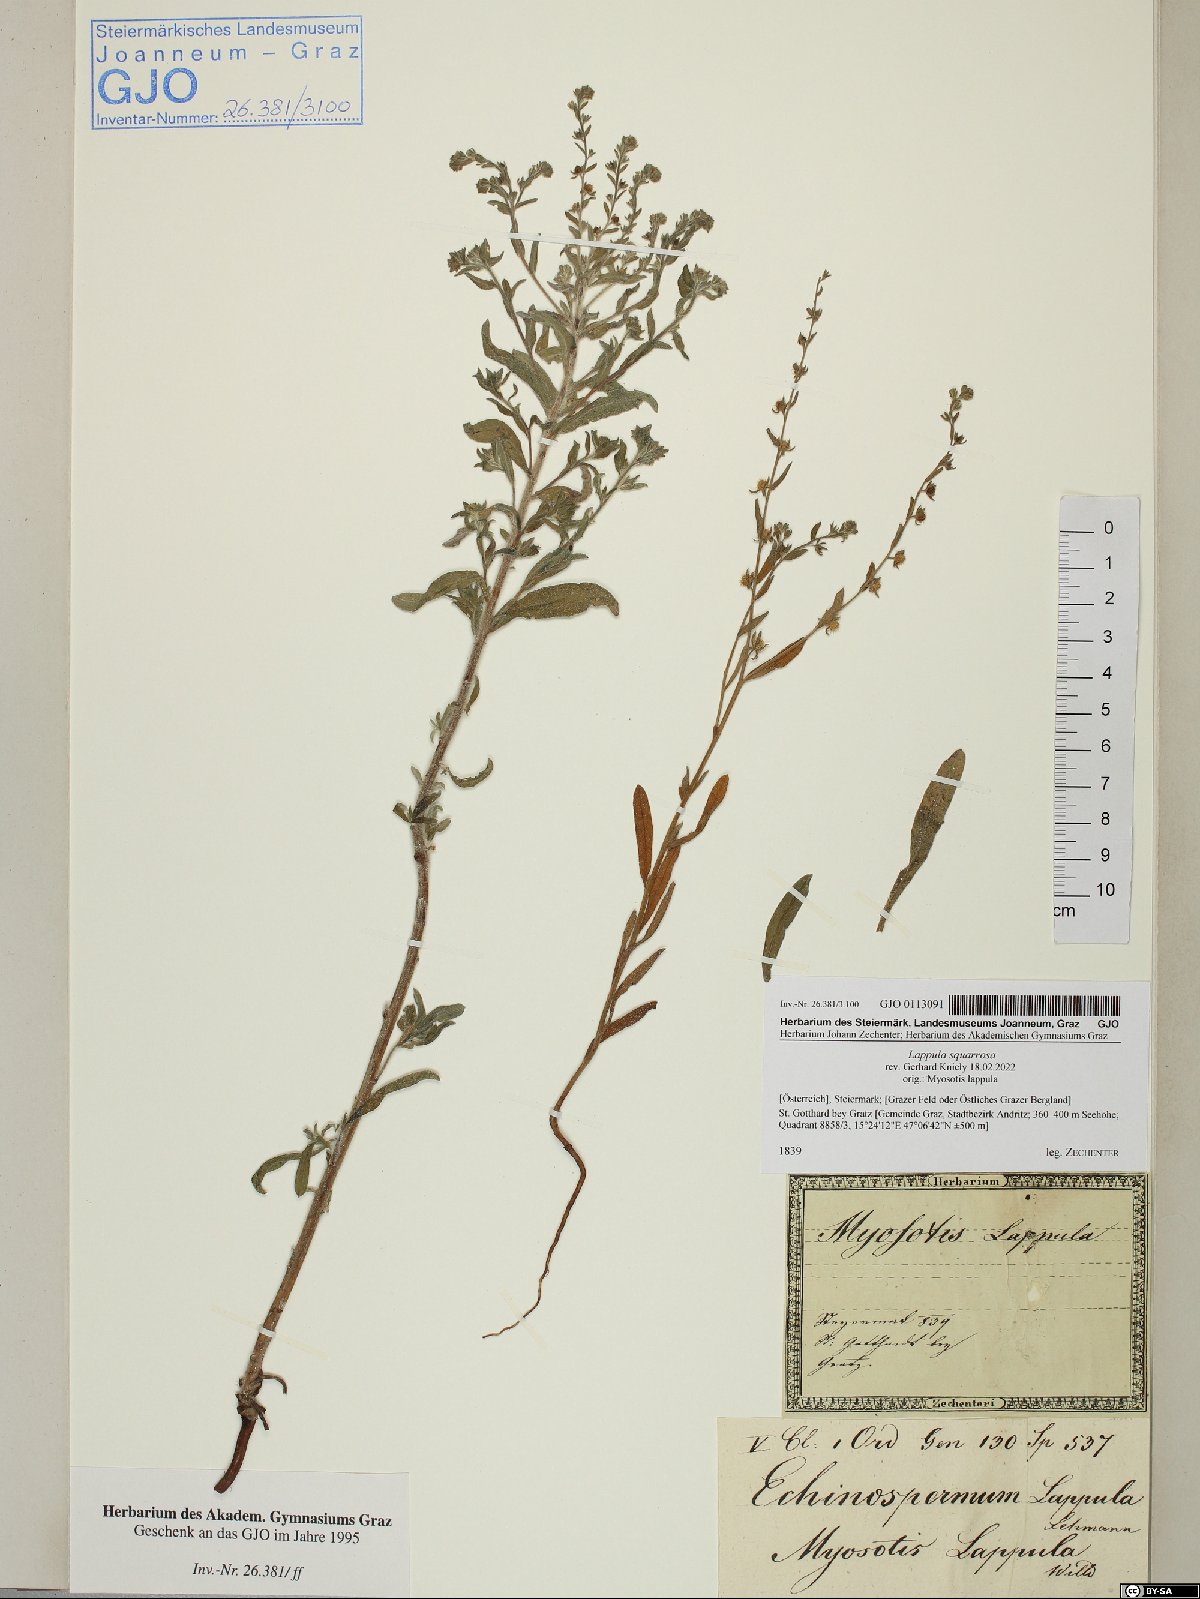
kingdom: Plantae
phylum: Tracheophyta
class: Magnoliopsida
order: Boraginales
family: Boraginaceae
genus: Lappula
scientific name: Lappula squarrosa
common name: European stickseed
